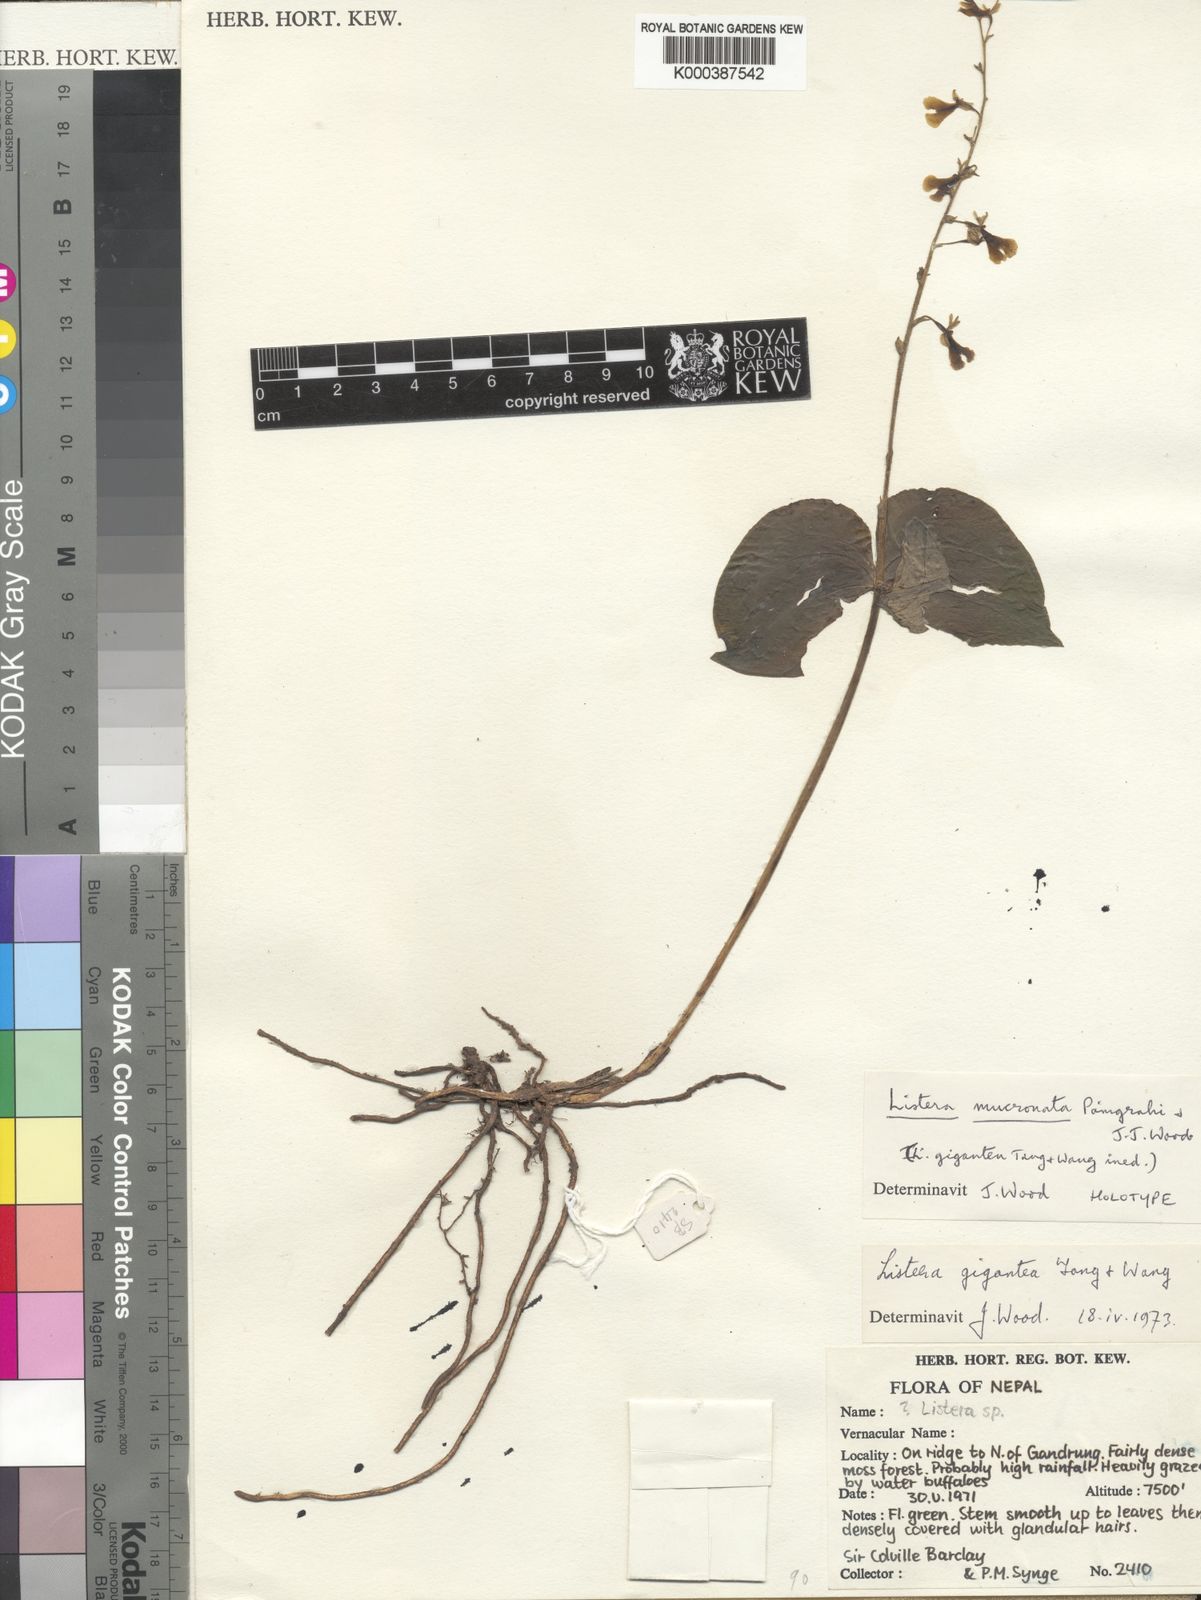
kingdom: Plantae
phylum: Tracheophyta
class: Liliopsida
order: Asparagales
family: Orchidaceae
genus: Neottia
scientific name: Neottia mucronata
